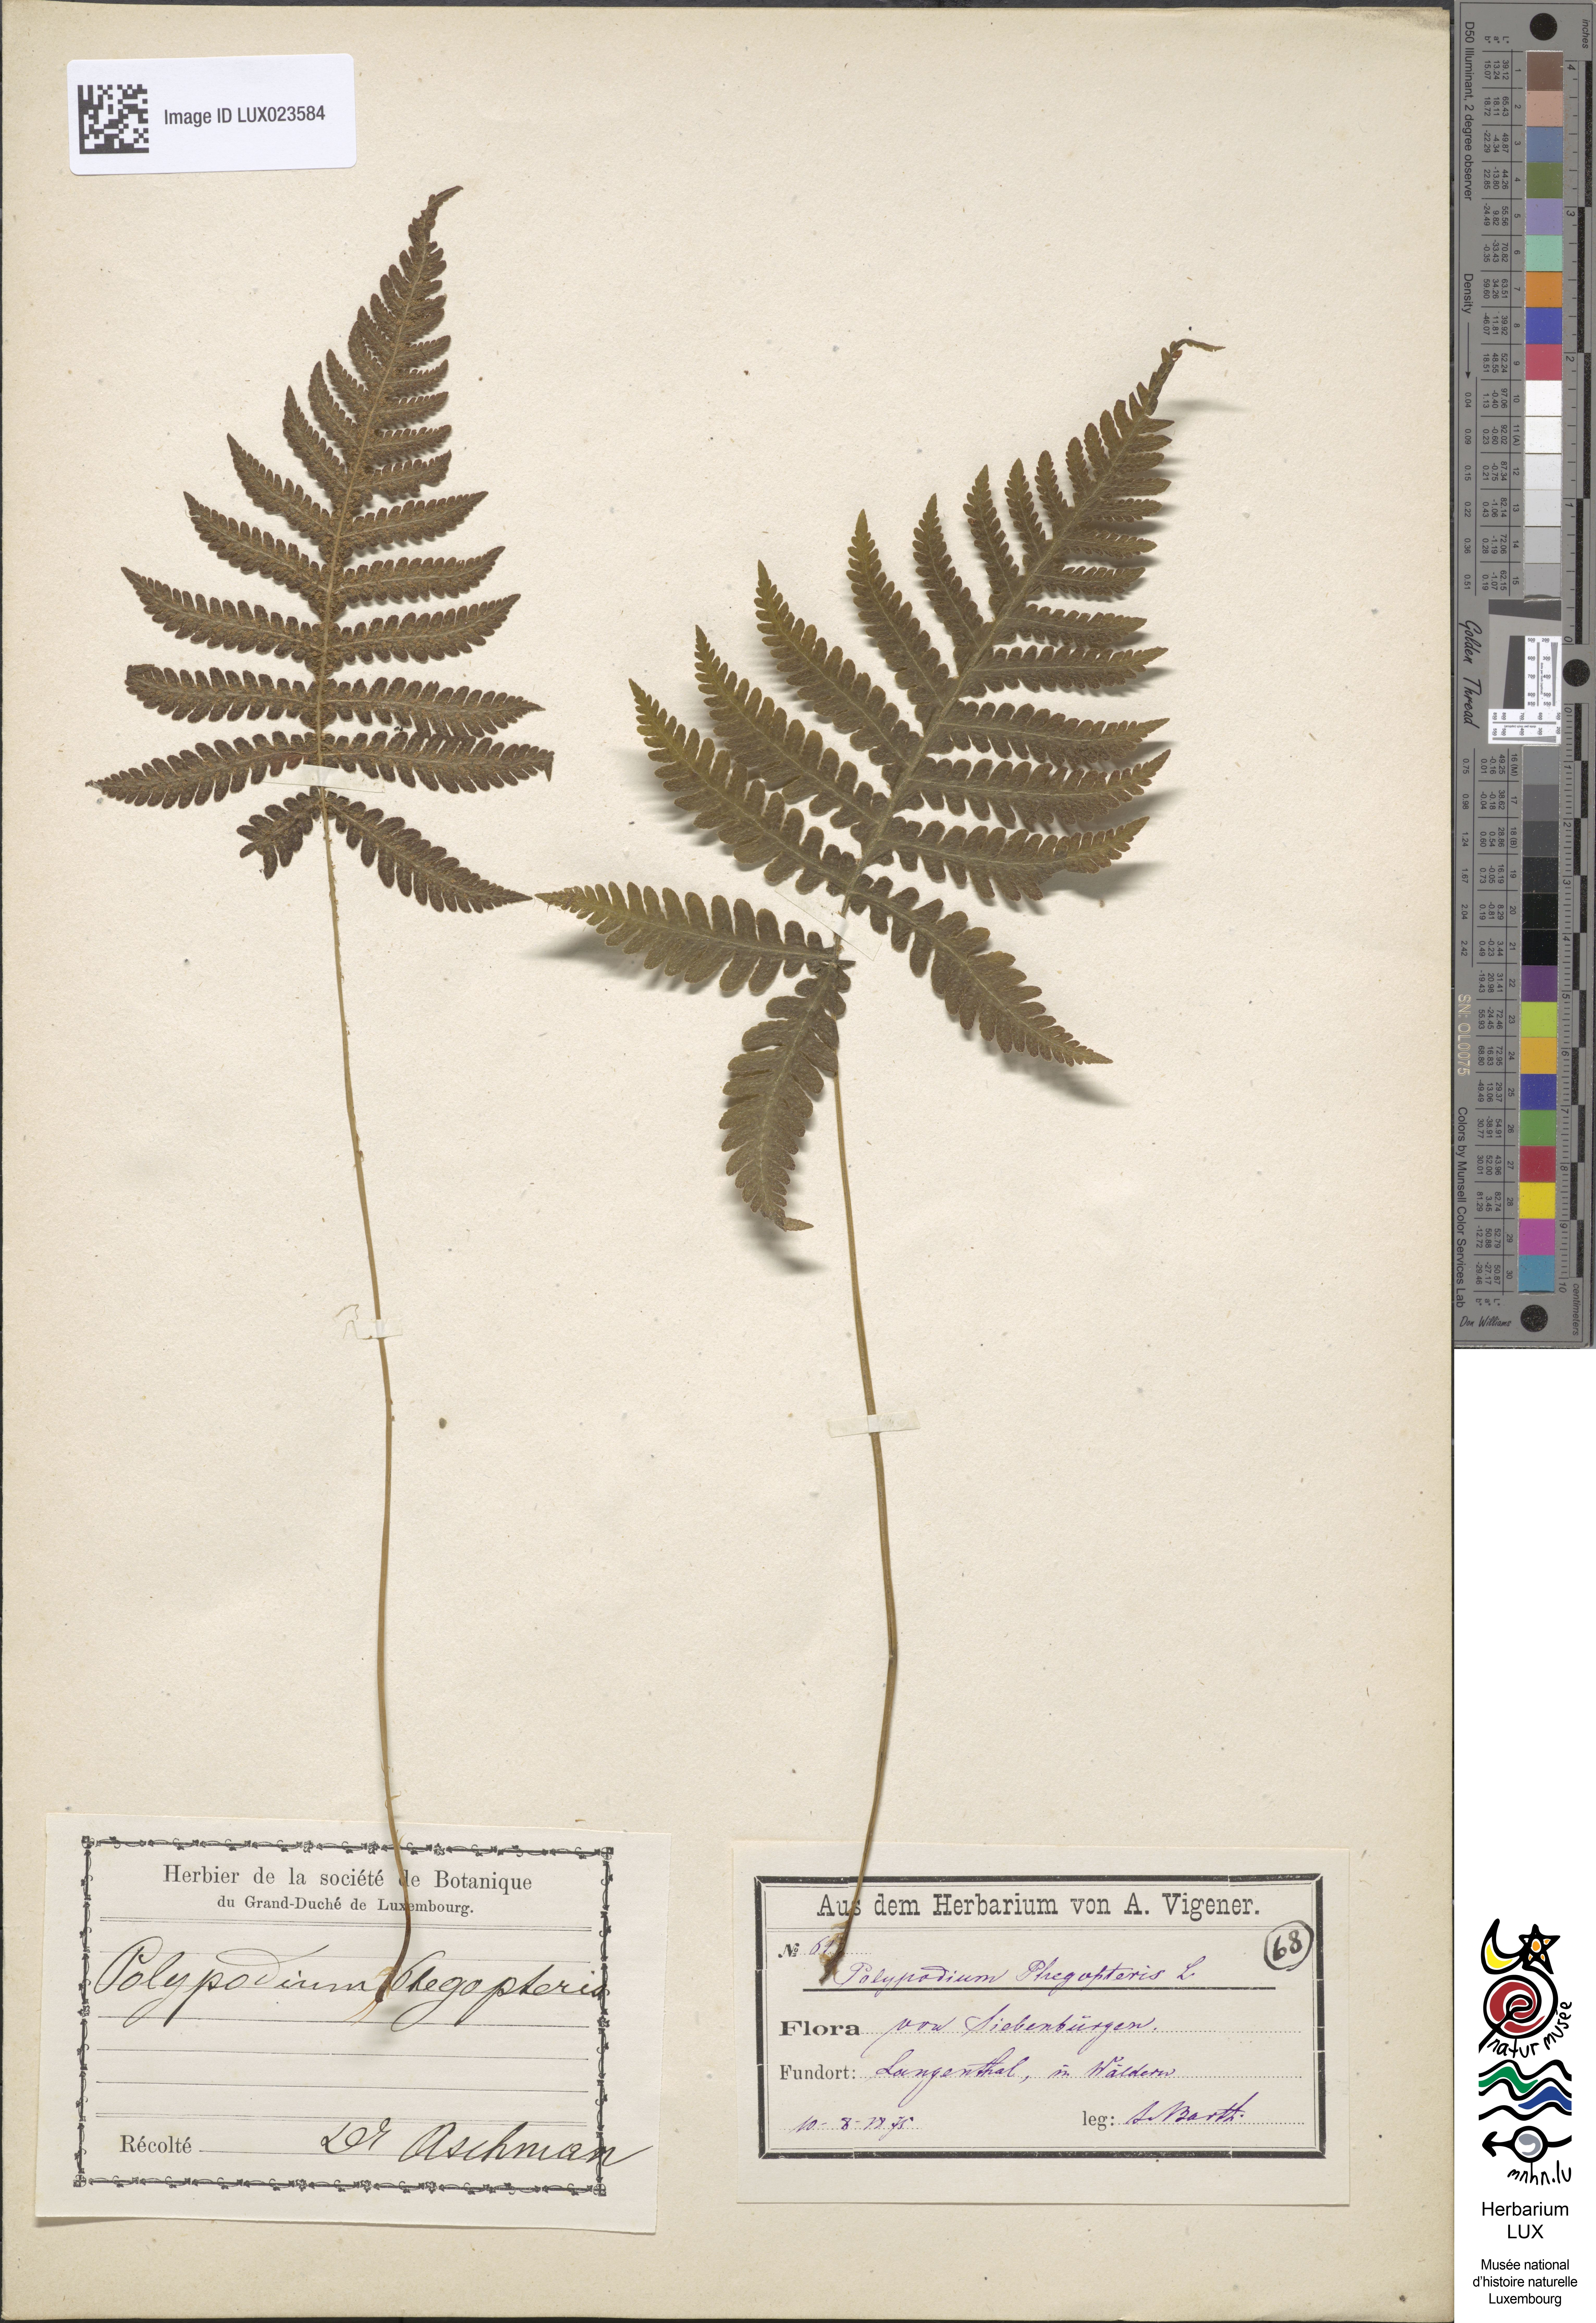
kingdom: Plantae
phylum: Tracheophyta
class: Polypodiopsida
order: Polypodiales
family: Thelypteridaceae
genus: Phegopteris
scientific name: Phegopteris connectilis
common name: Beech fern
